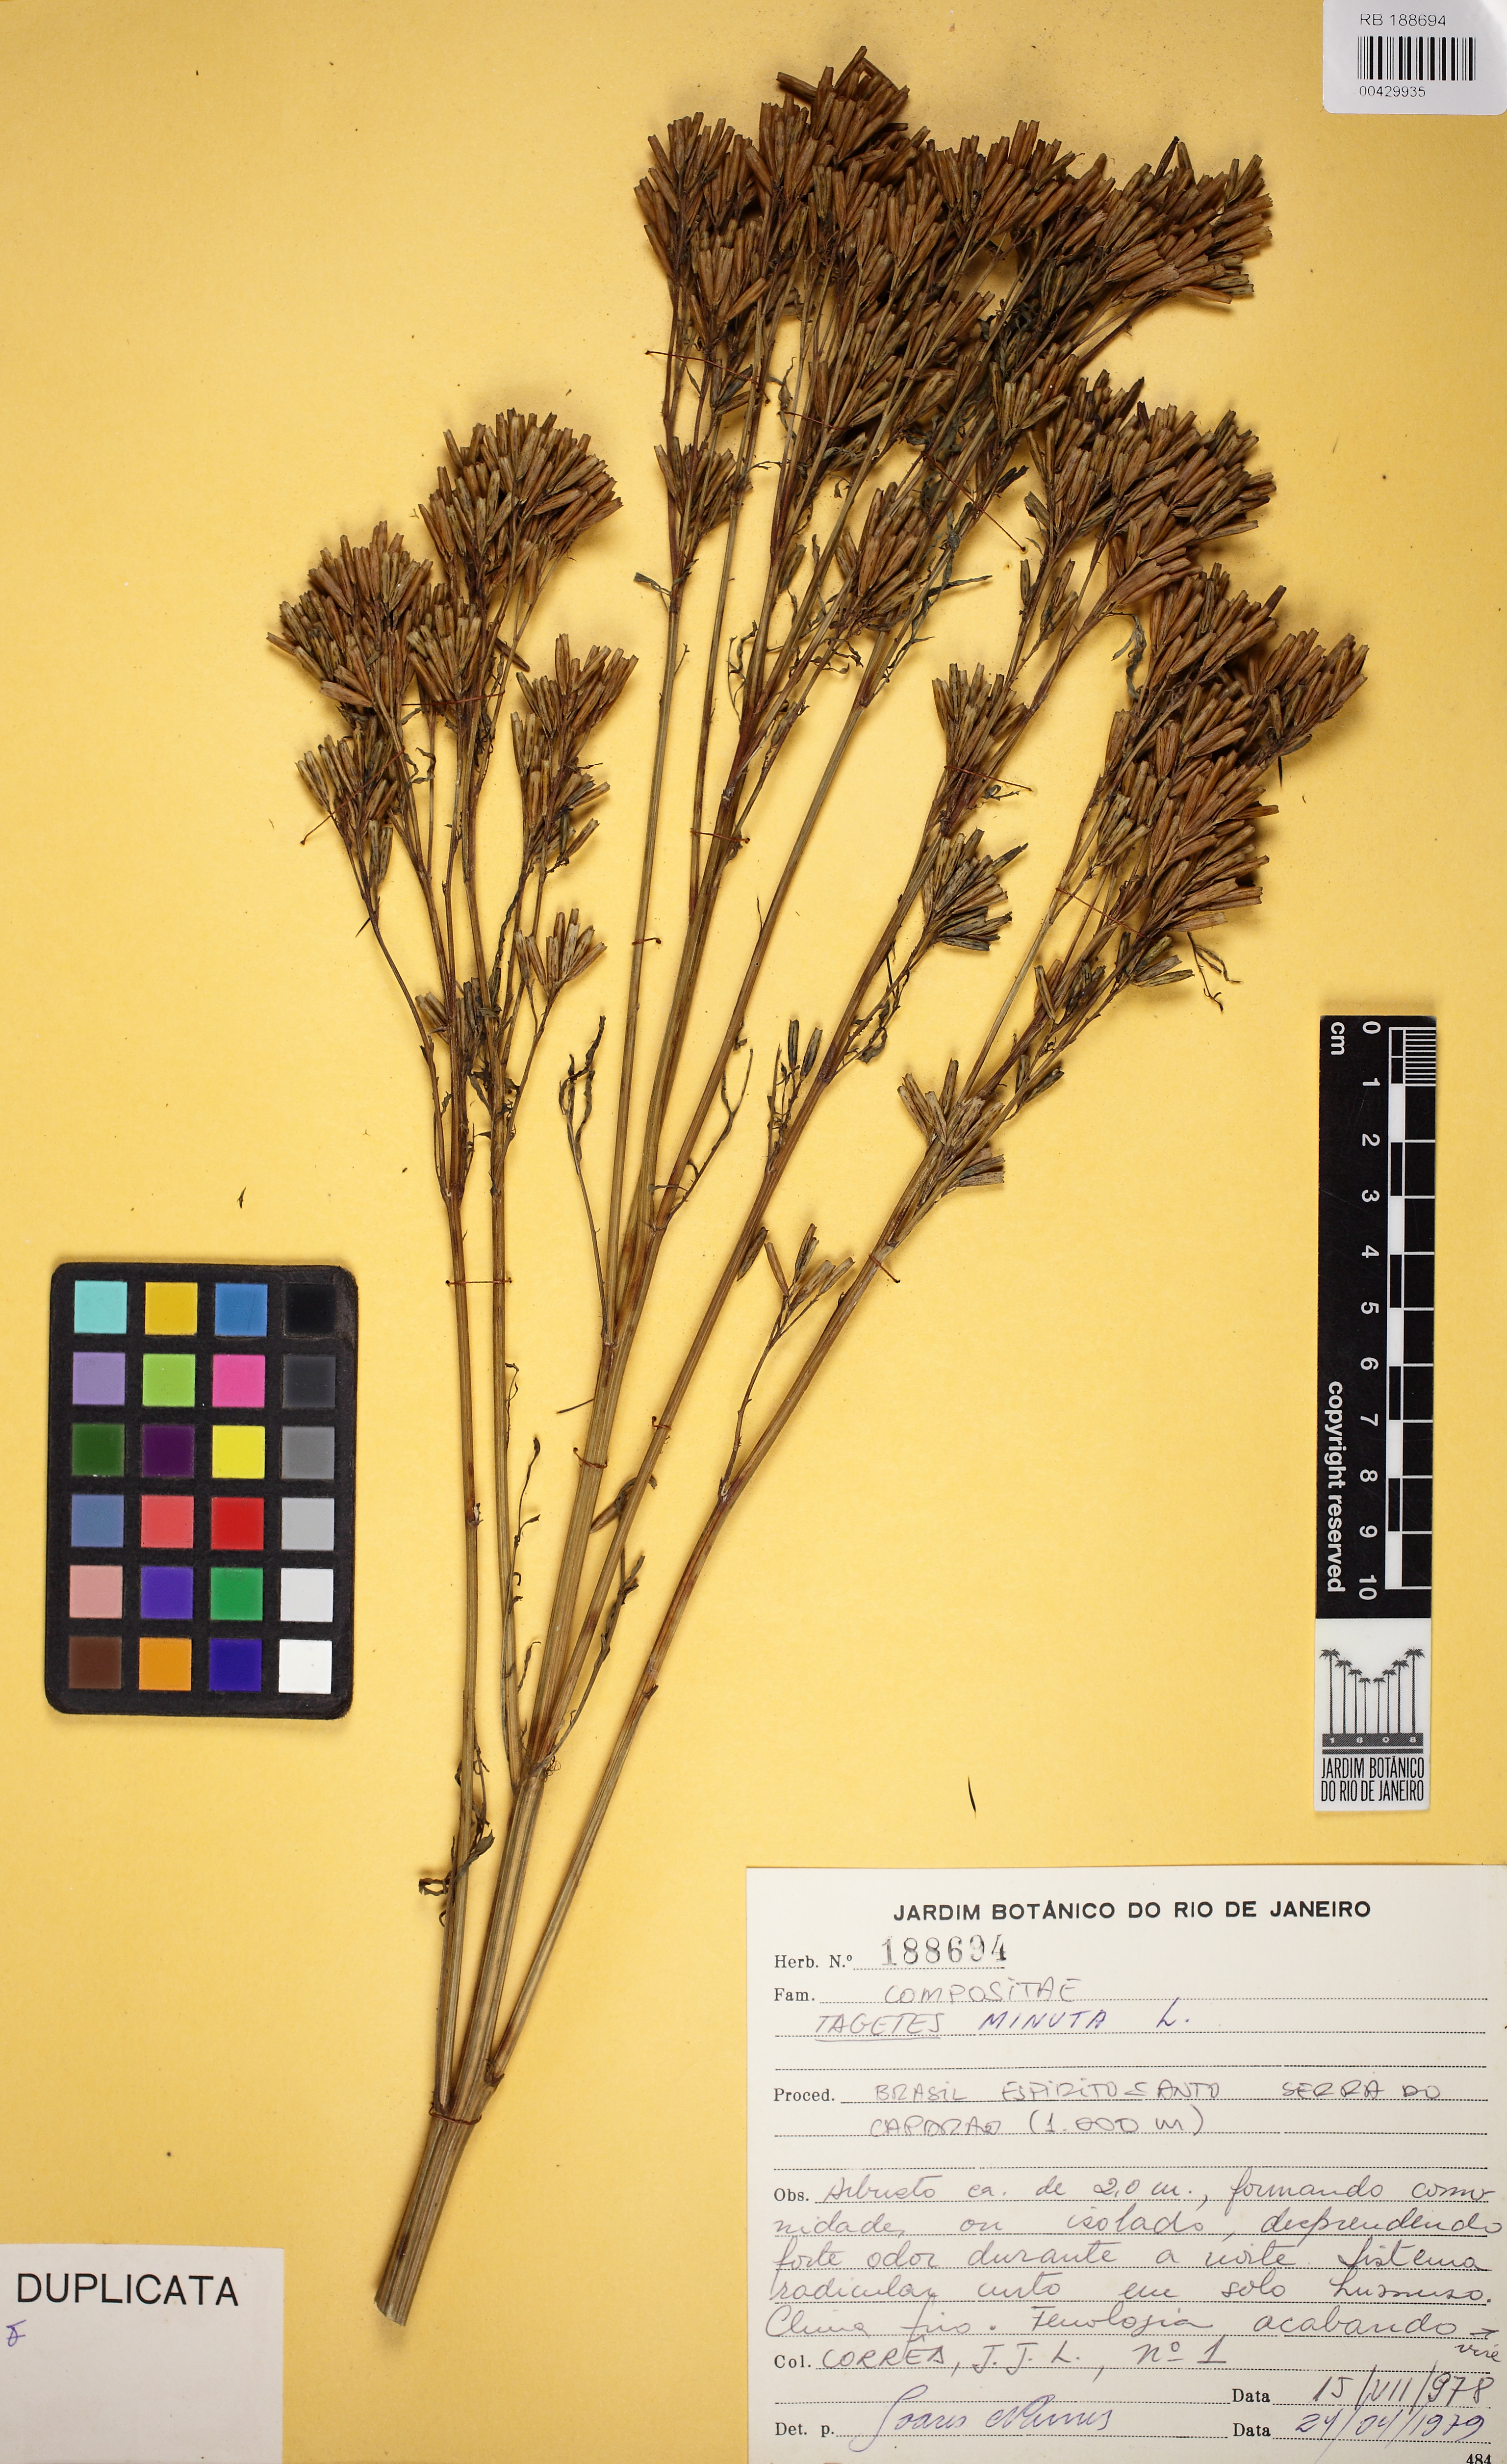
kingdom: Plantae
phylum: Tracheophyta
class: Magnoliopsida
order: Asterales
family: Asteraceae
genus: Tagetes
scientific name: Tagetes minuta
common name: Muster john henry
